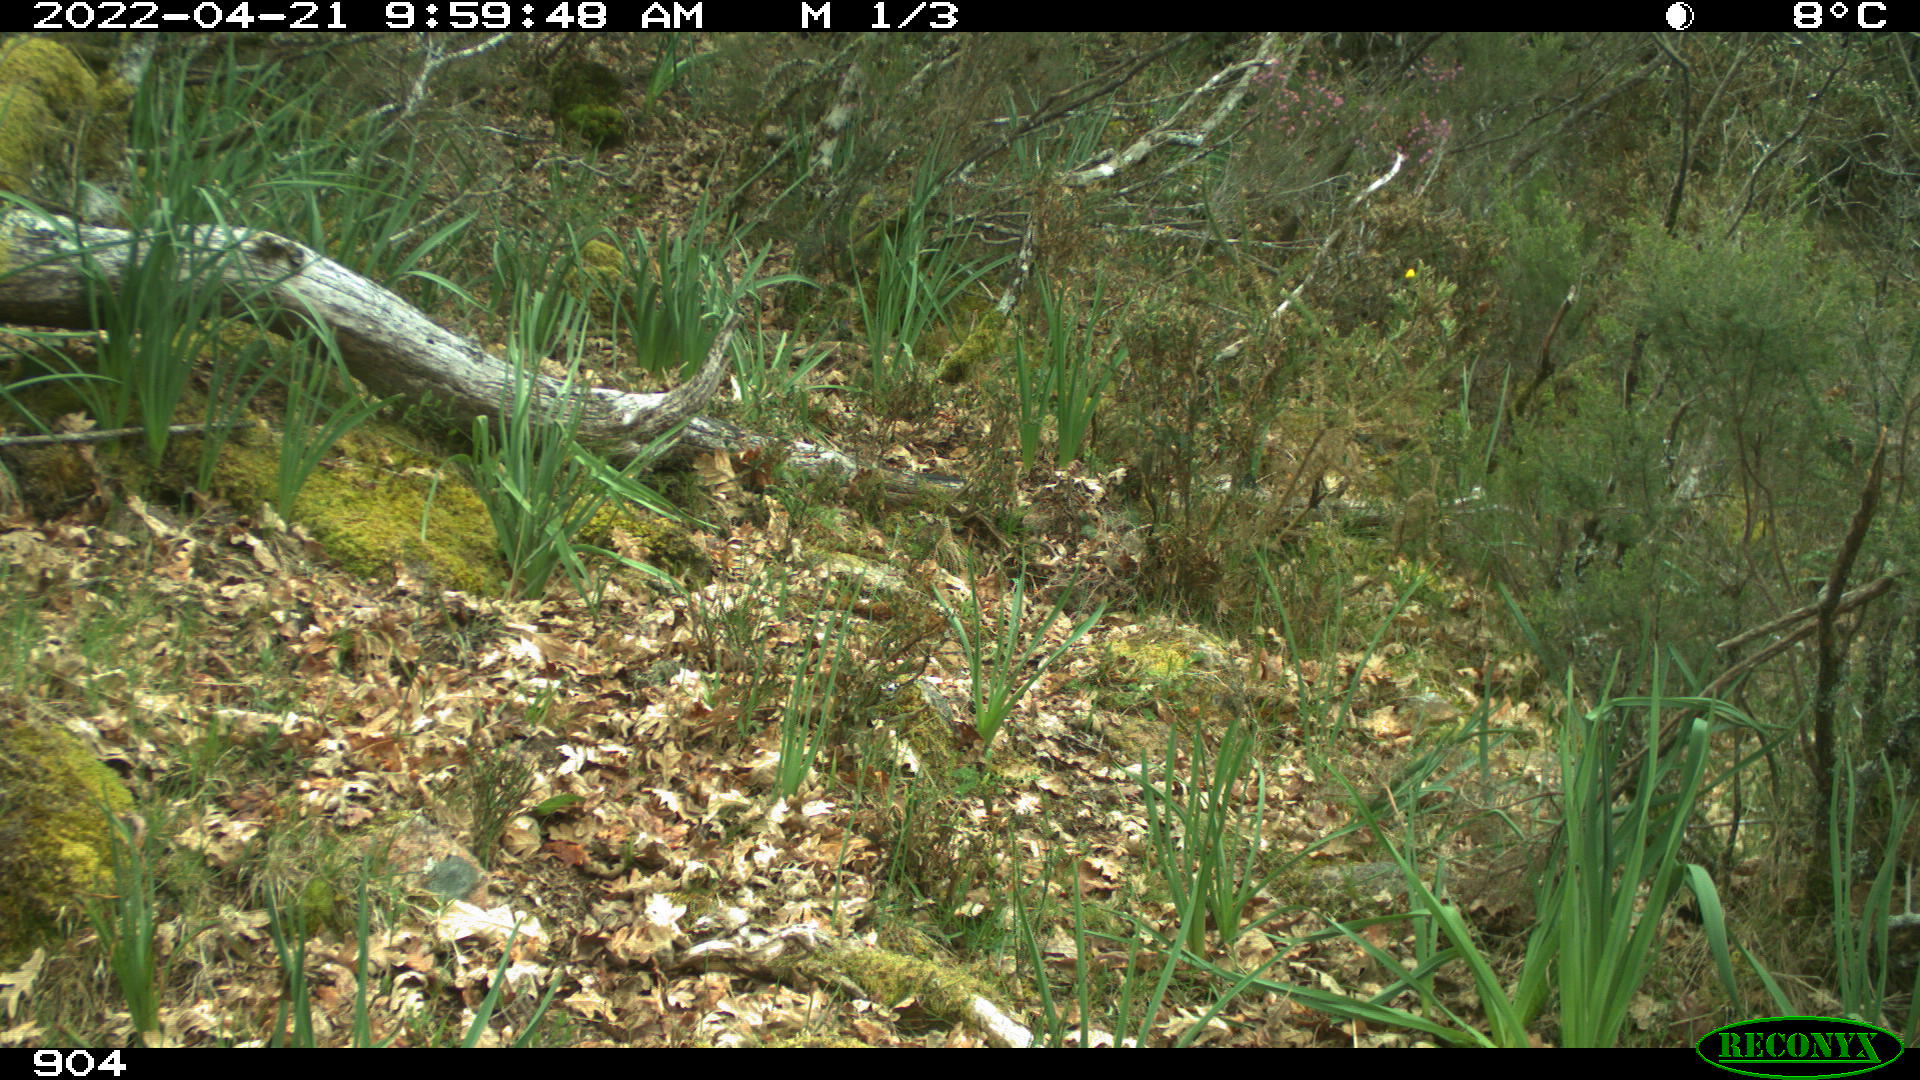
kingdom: Animalia
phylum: Chordata
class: Mammalia
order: Artiodactyla
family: Bovidae
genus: Bos
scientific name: Bos taurus
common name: Domesticated cattle
